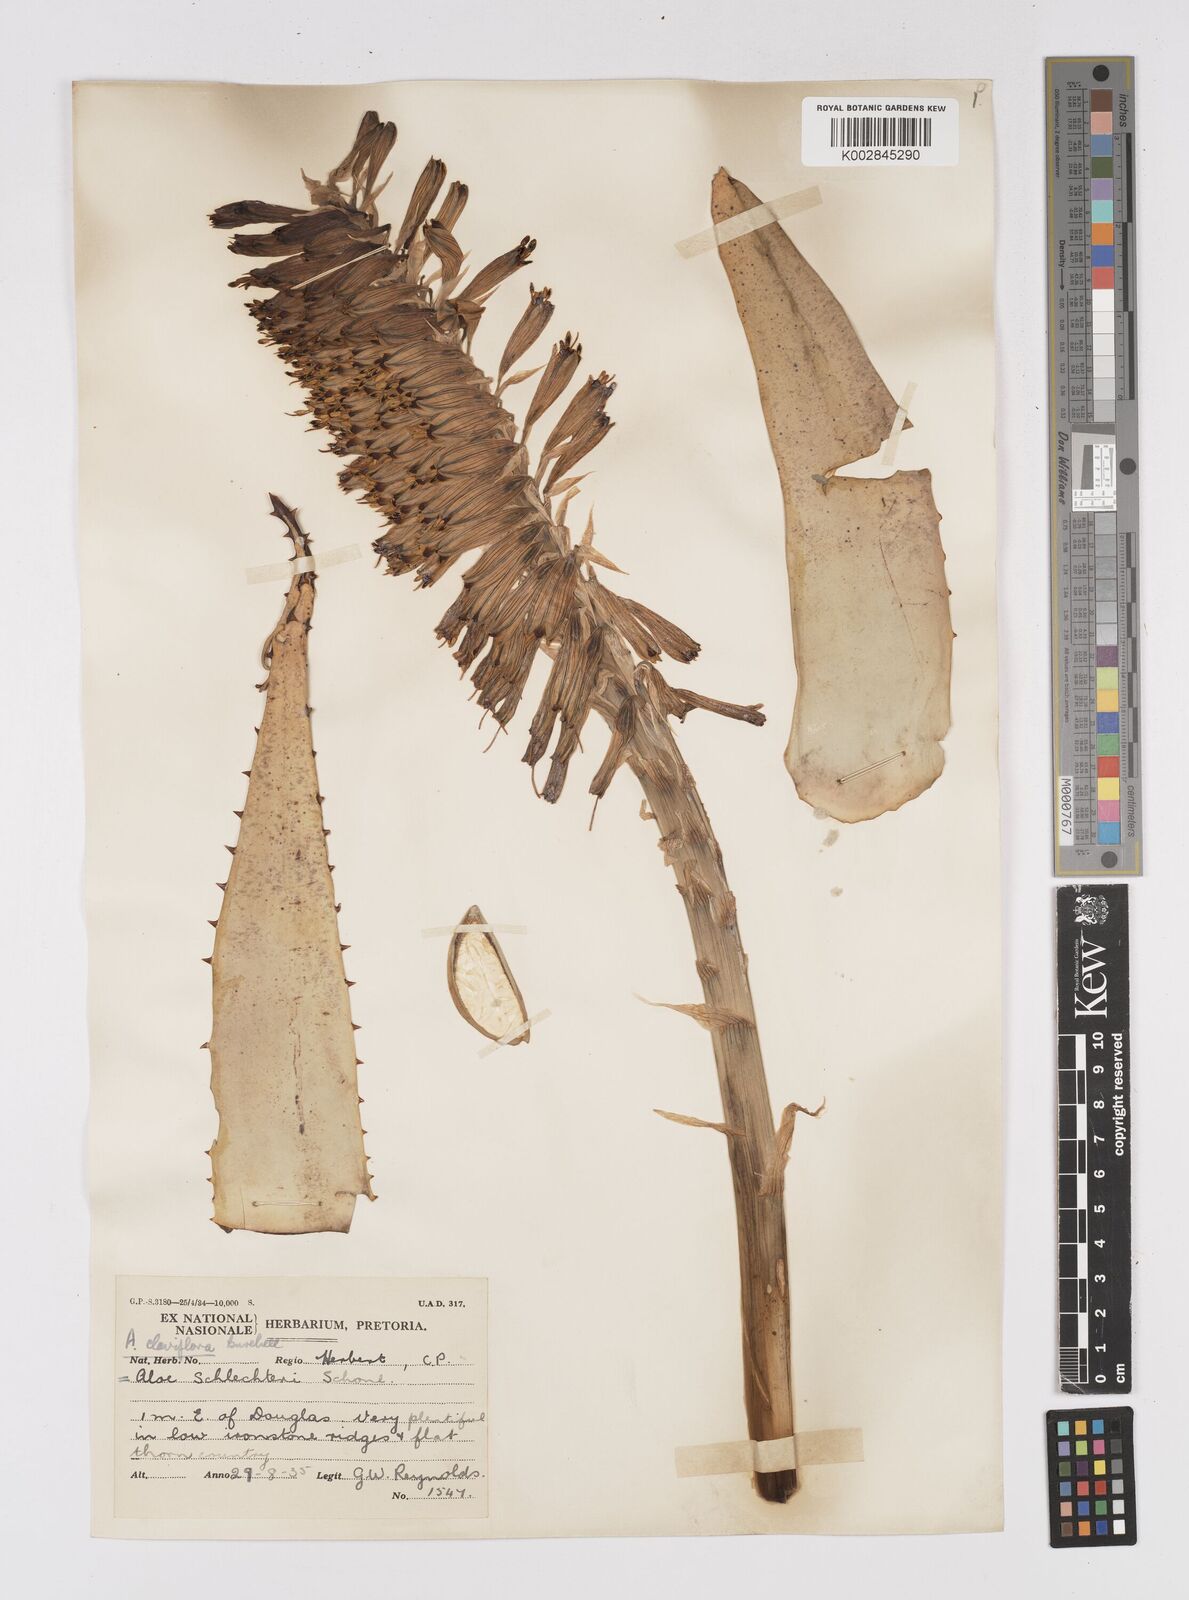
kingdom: Plantae
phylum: Tracheophyta
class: Liliopsida
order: Asparagales
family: Asphodelaceae
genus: Aloe
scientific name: Aloe claviflora
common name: Cannon aloe
